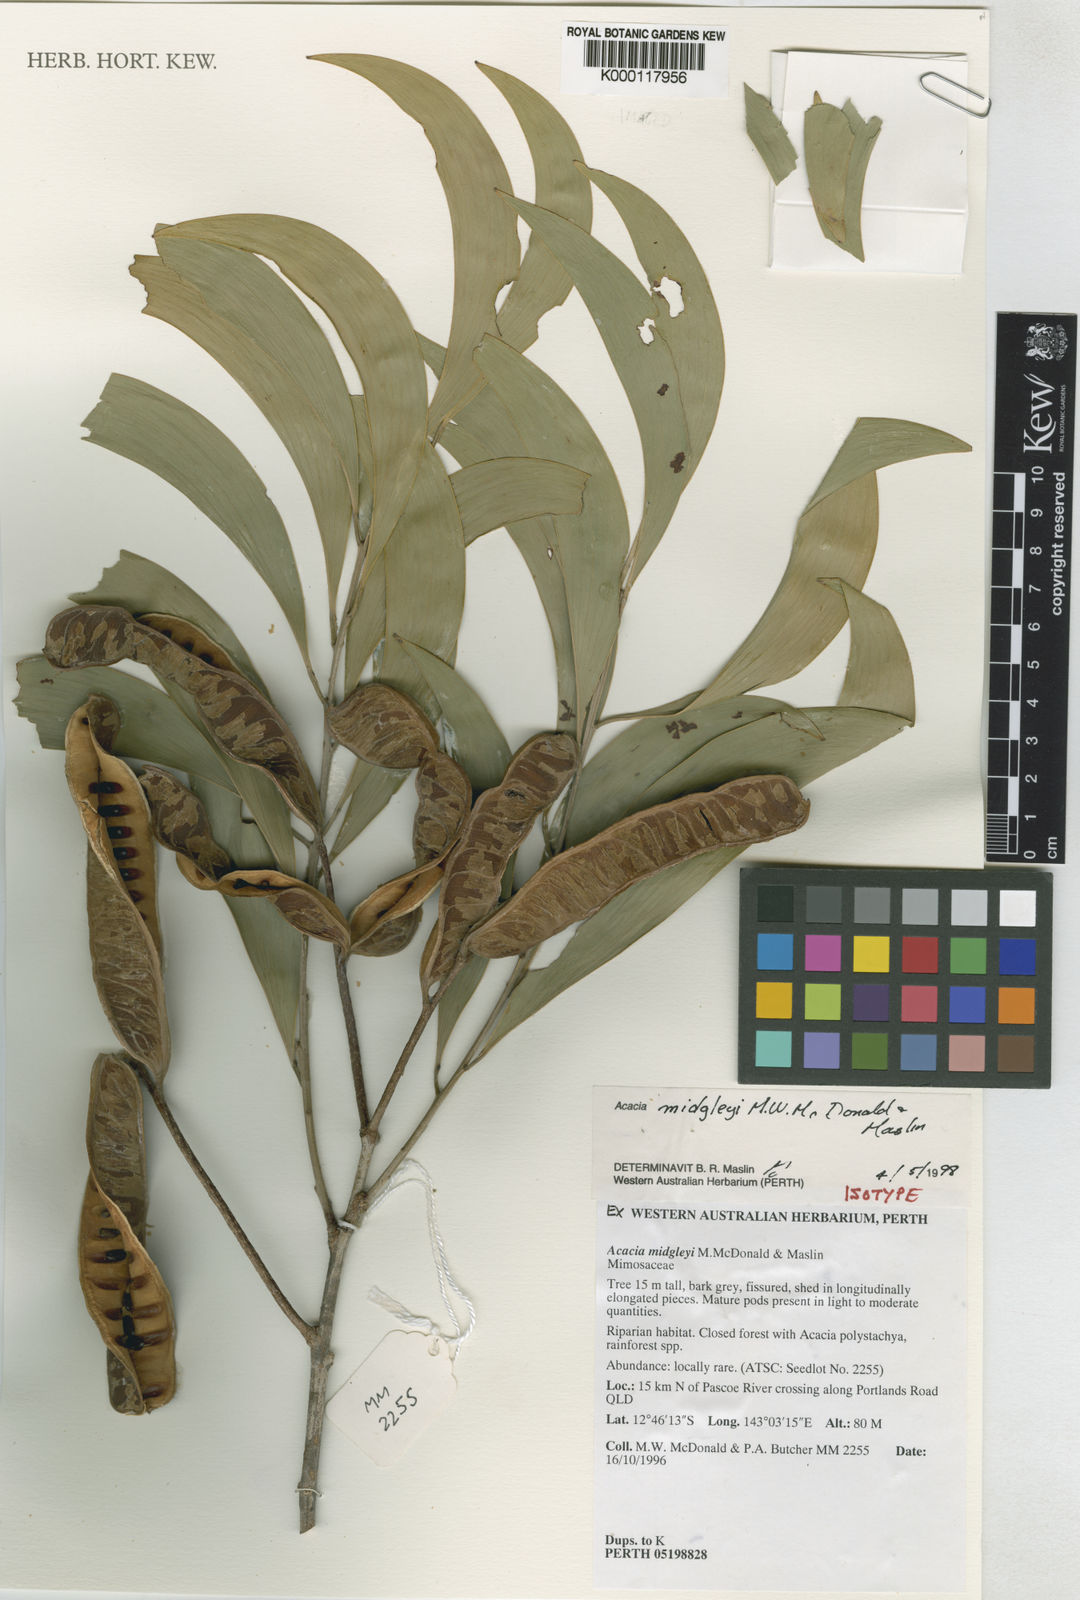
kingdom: Plantae
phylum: Tracheophyta
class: Magnoliopsida
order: Fabales
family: Fabaceae
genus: Acacia
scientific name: Acacia midgleyi
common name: Cape york salwood
